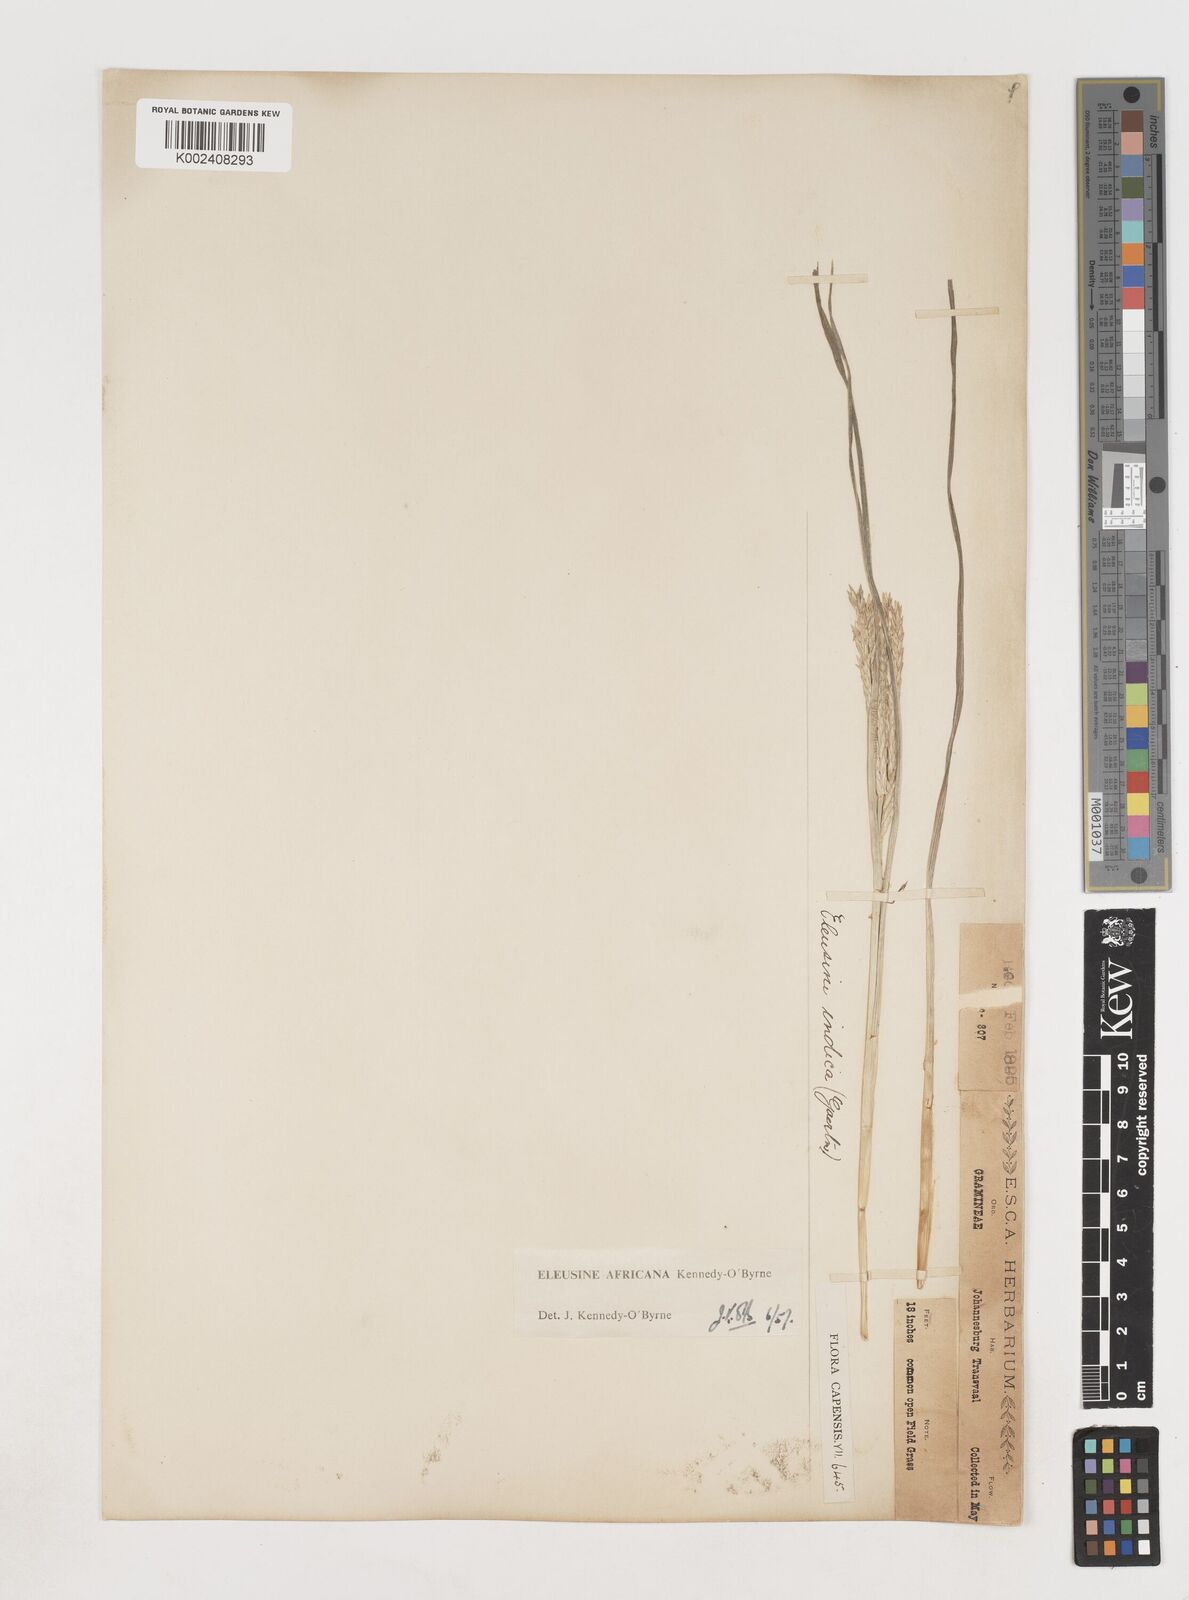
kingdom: Plantae
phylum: Tracheophyta
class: Liliopsida
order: Poales
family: Poaceae
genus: Eleusine
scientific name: Eleusine africana
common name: Wild african finger millet
